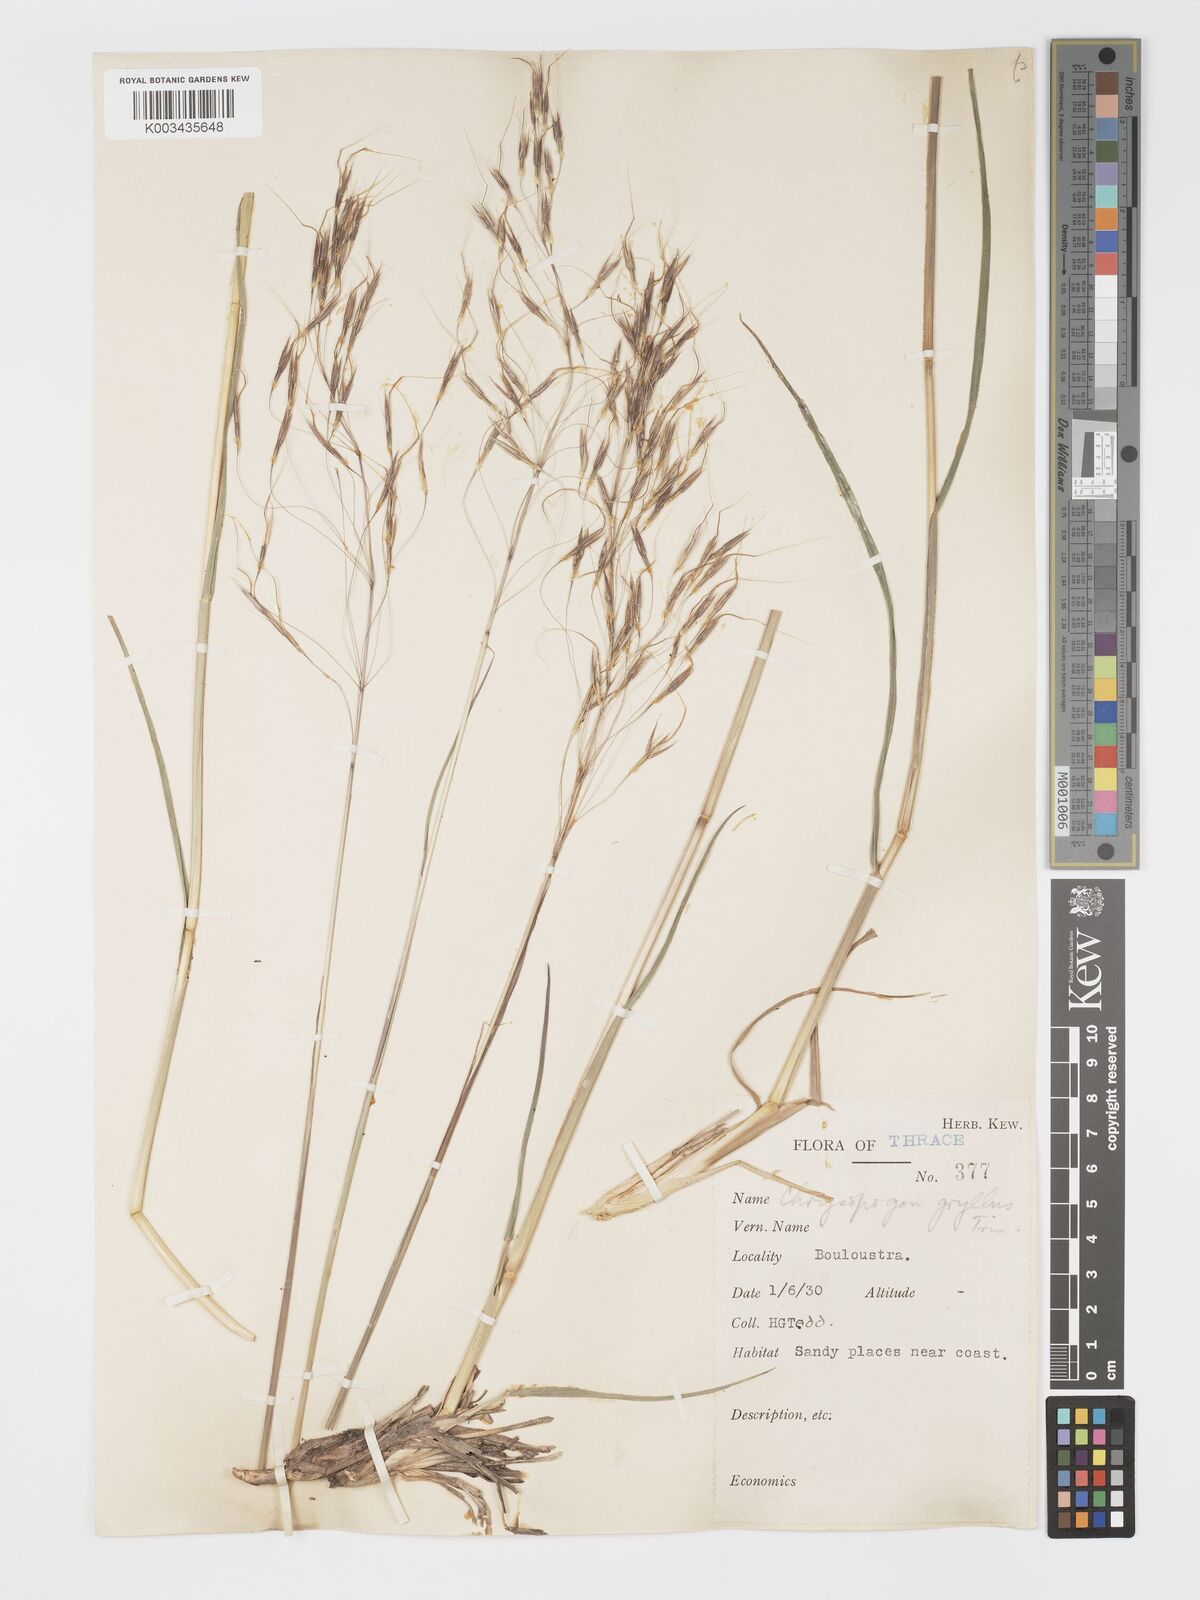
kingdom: Plantae
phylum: Tracheophyta
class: Liliopsida
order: Poales
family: Poaceae
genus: Chrysopogon
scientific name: Chrysopogon gryllus
